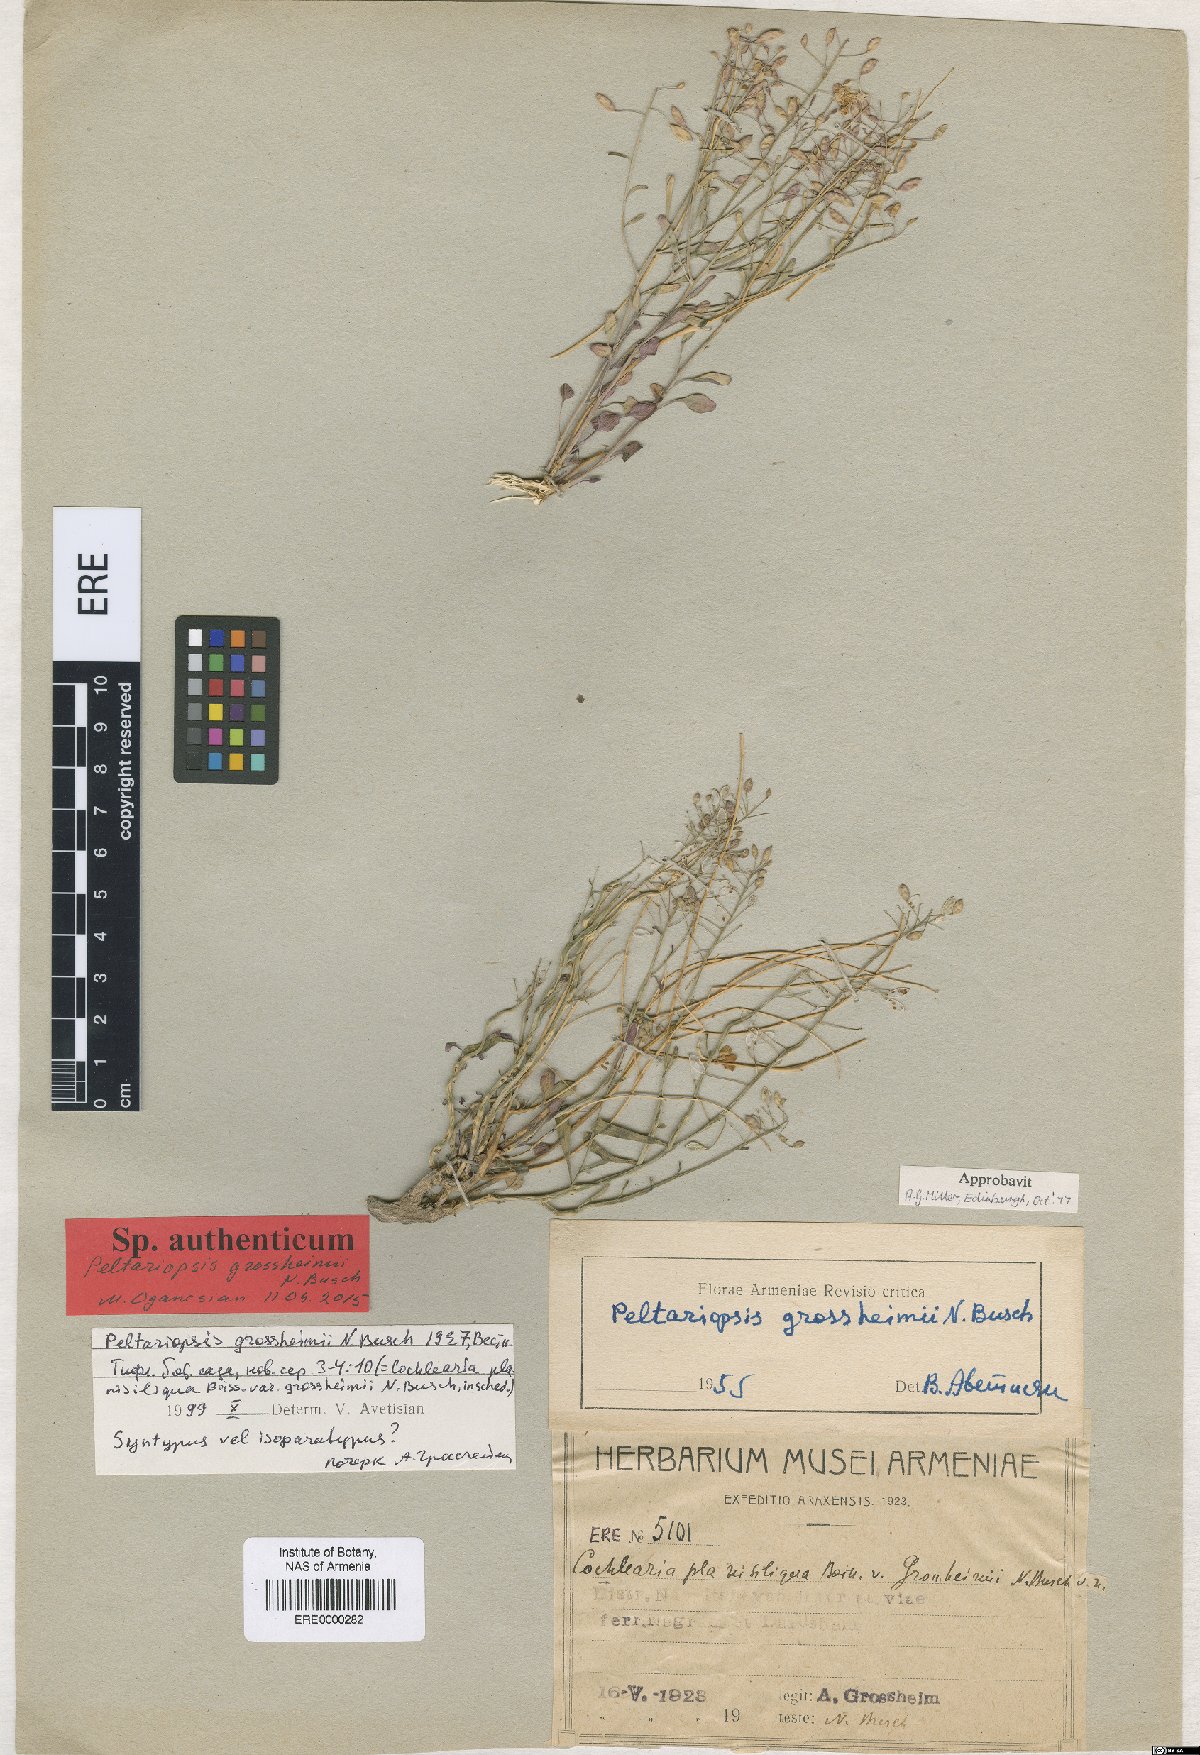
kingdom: Plantae
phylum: Tracheophyta
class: Magnoliopsida
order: Brassicales
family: Brassicaceae
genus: Peltariopsis
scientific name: Peltariopsis grossheimii
